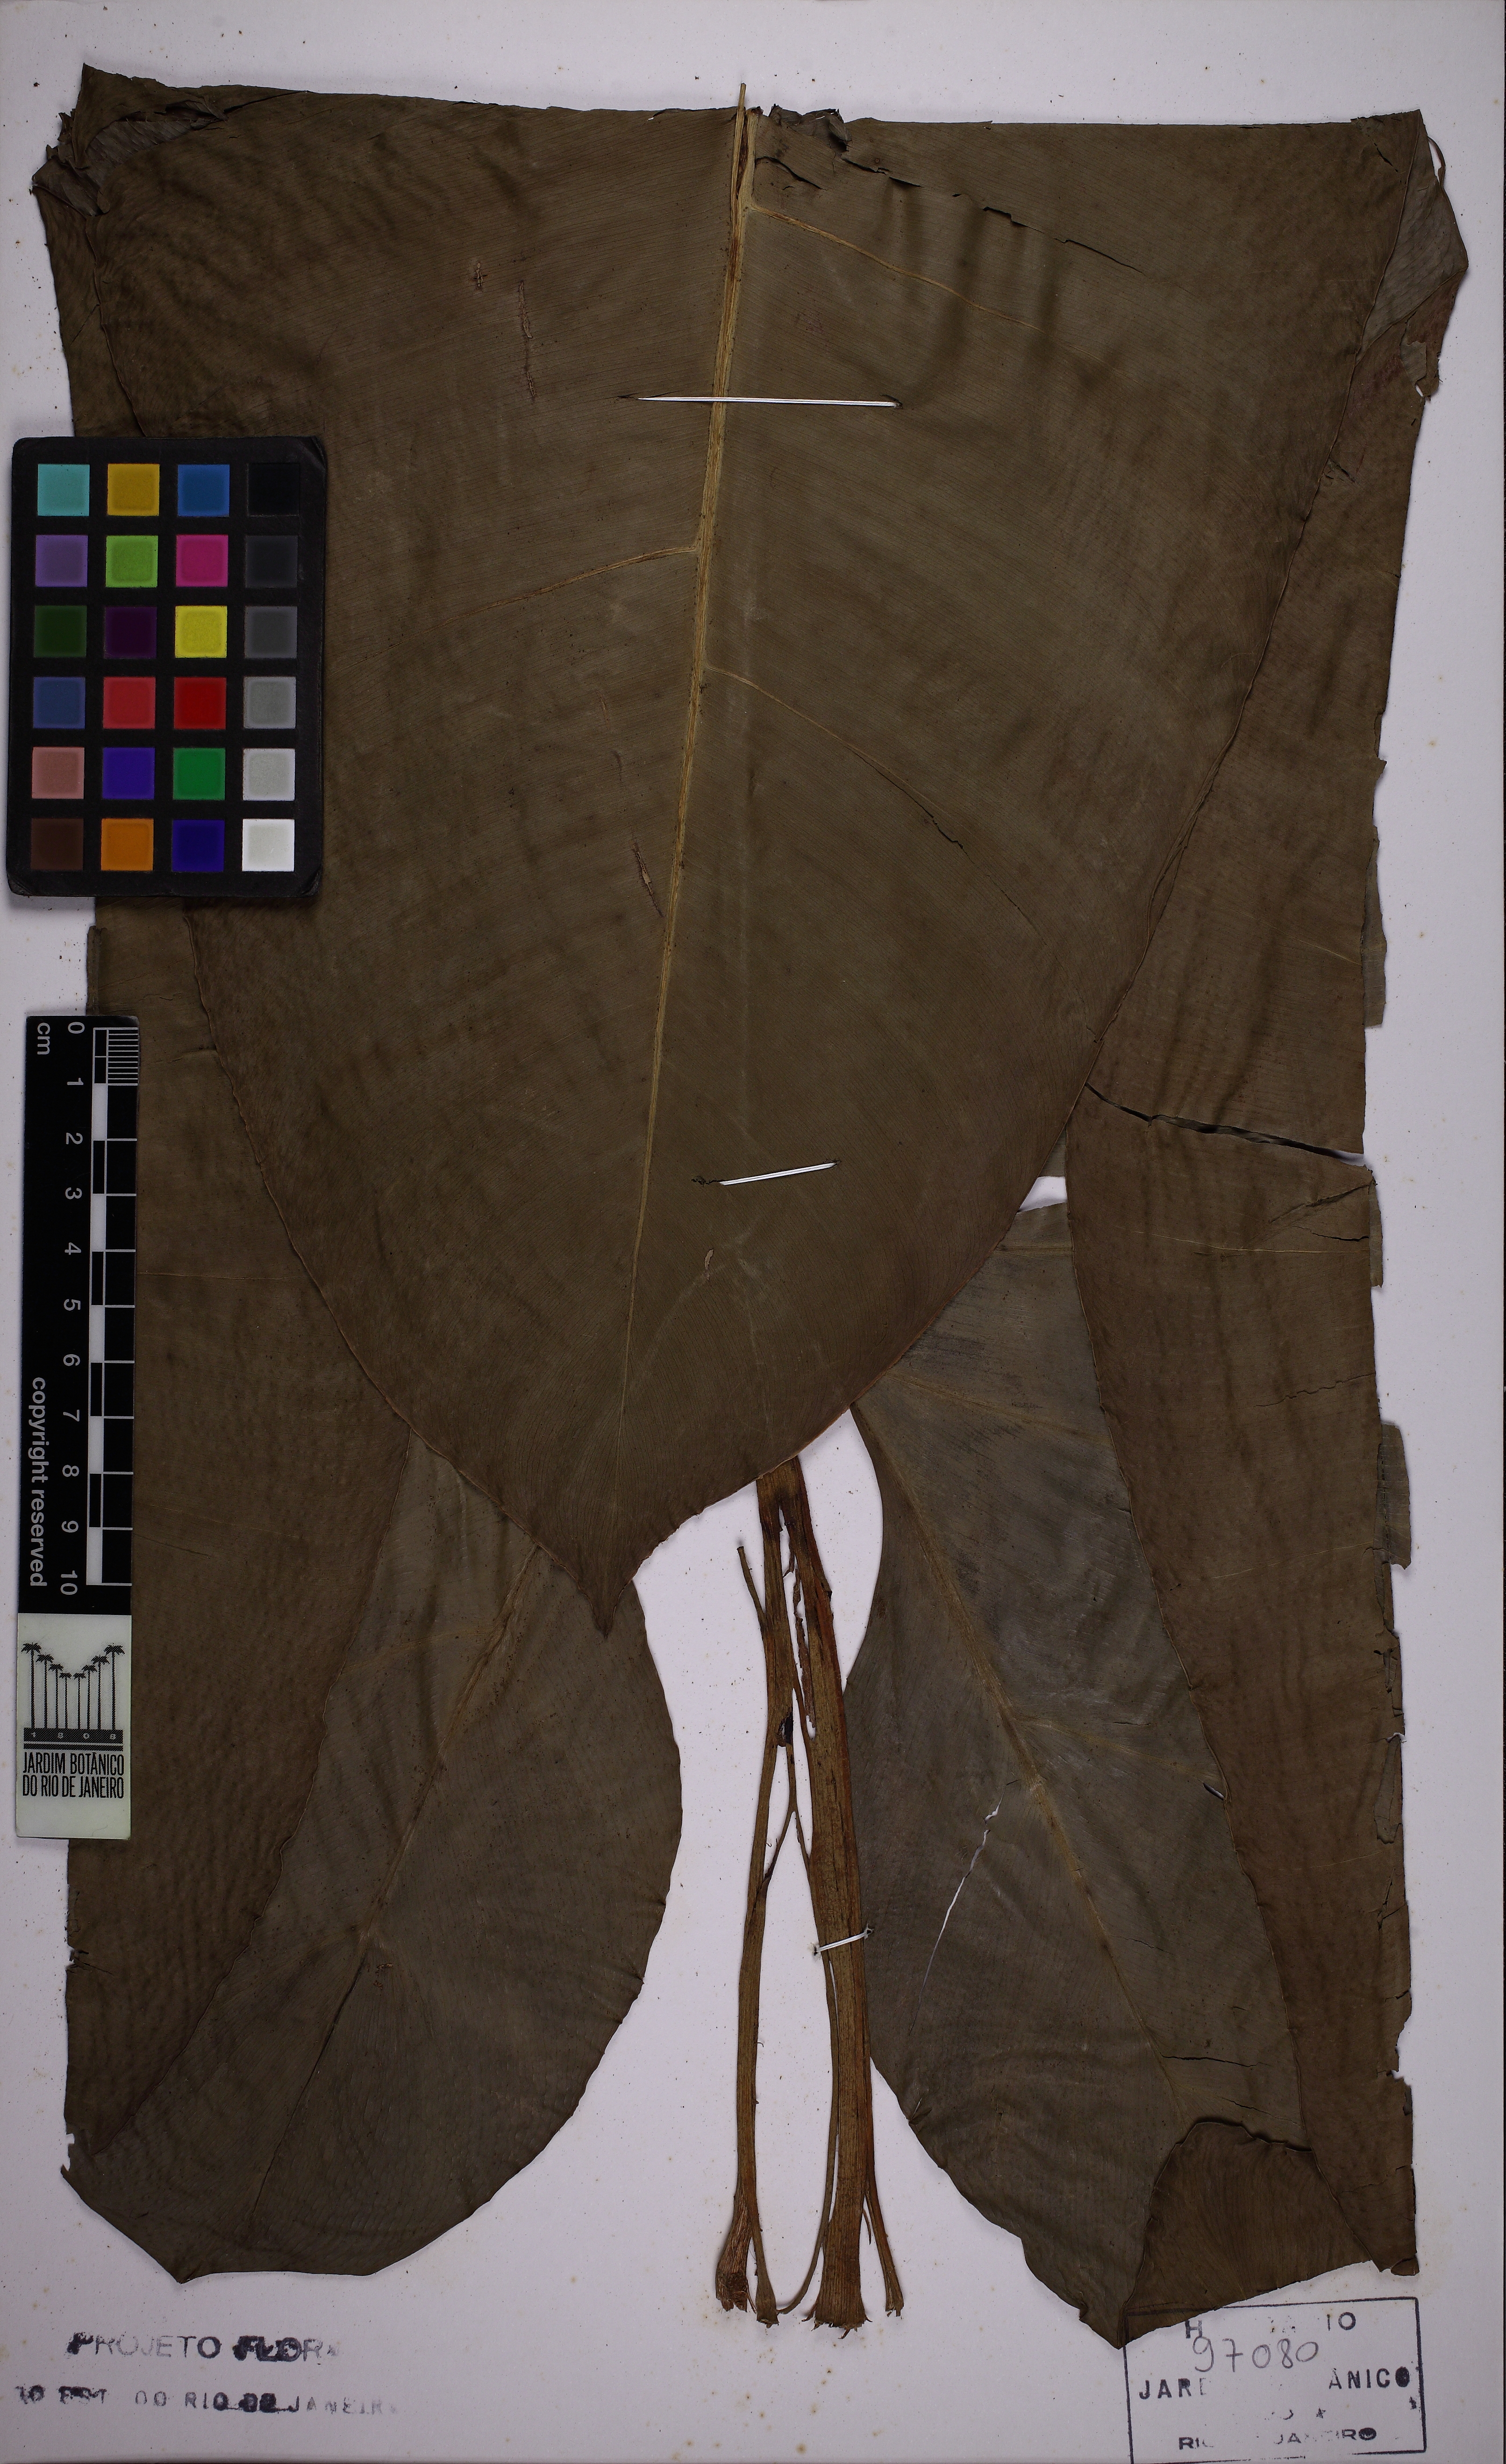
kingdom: Plantae
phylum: Tracheophyta
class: Liliopsida
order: Alismatales
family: Araceae
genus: Philodendron
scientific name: Philodendron maximum
